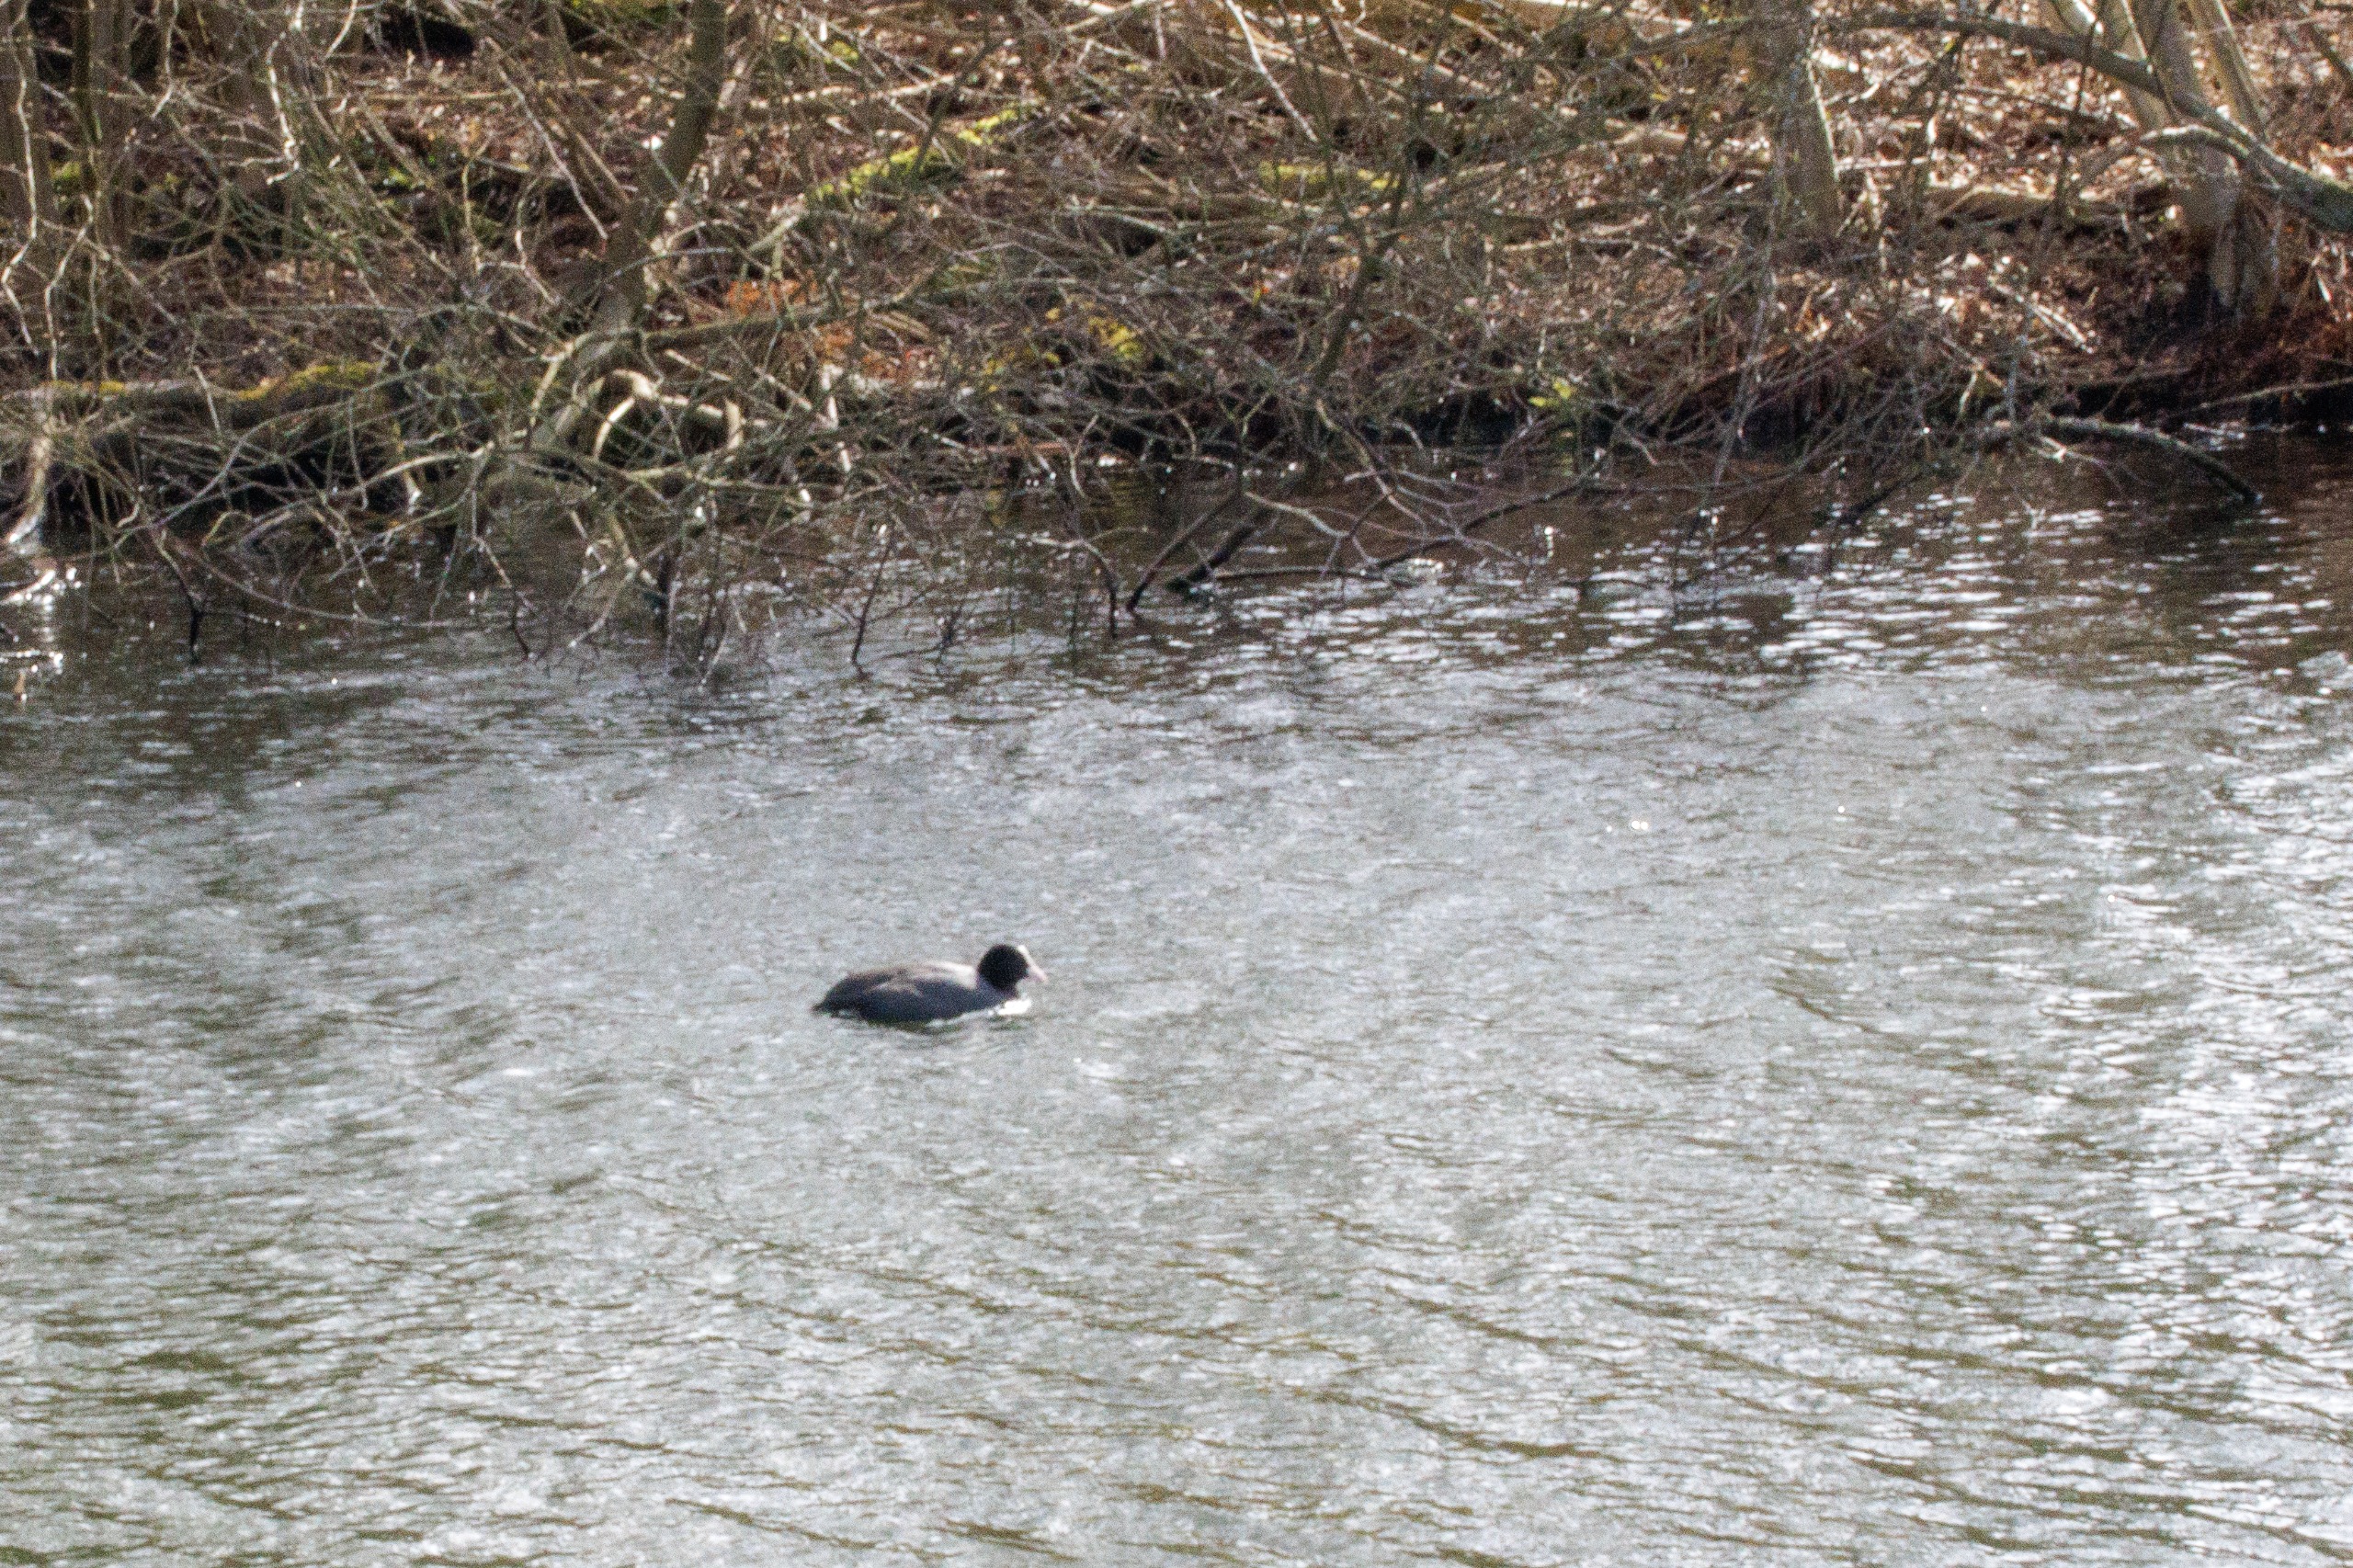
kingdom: Animalia
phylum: Chordata
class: Aves
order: Gruiformes
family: Rallidae
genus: Fulica
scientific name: Fulica atra
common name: Blishøne
